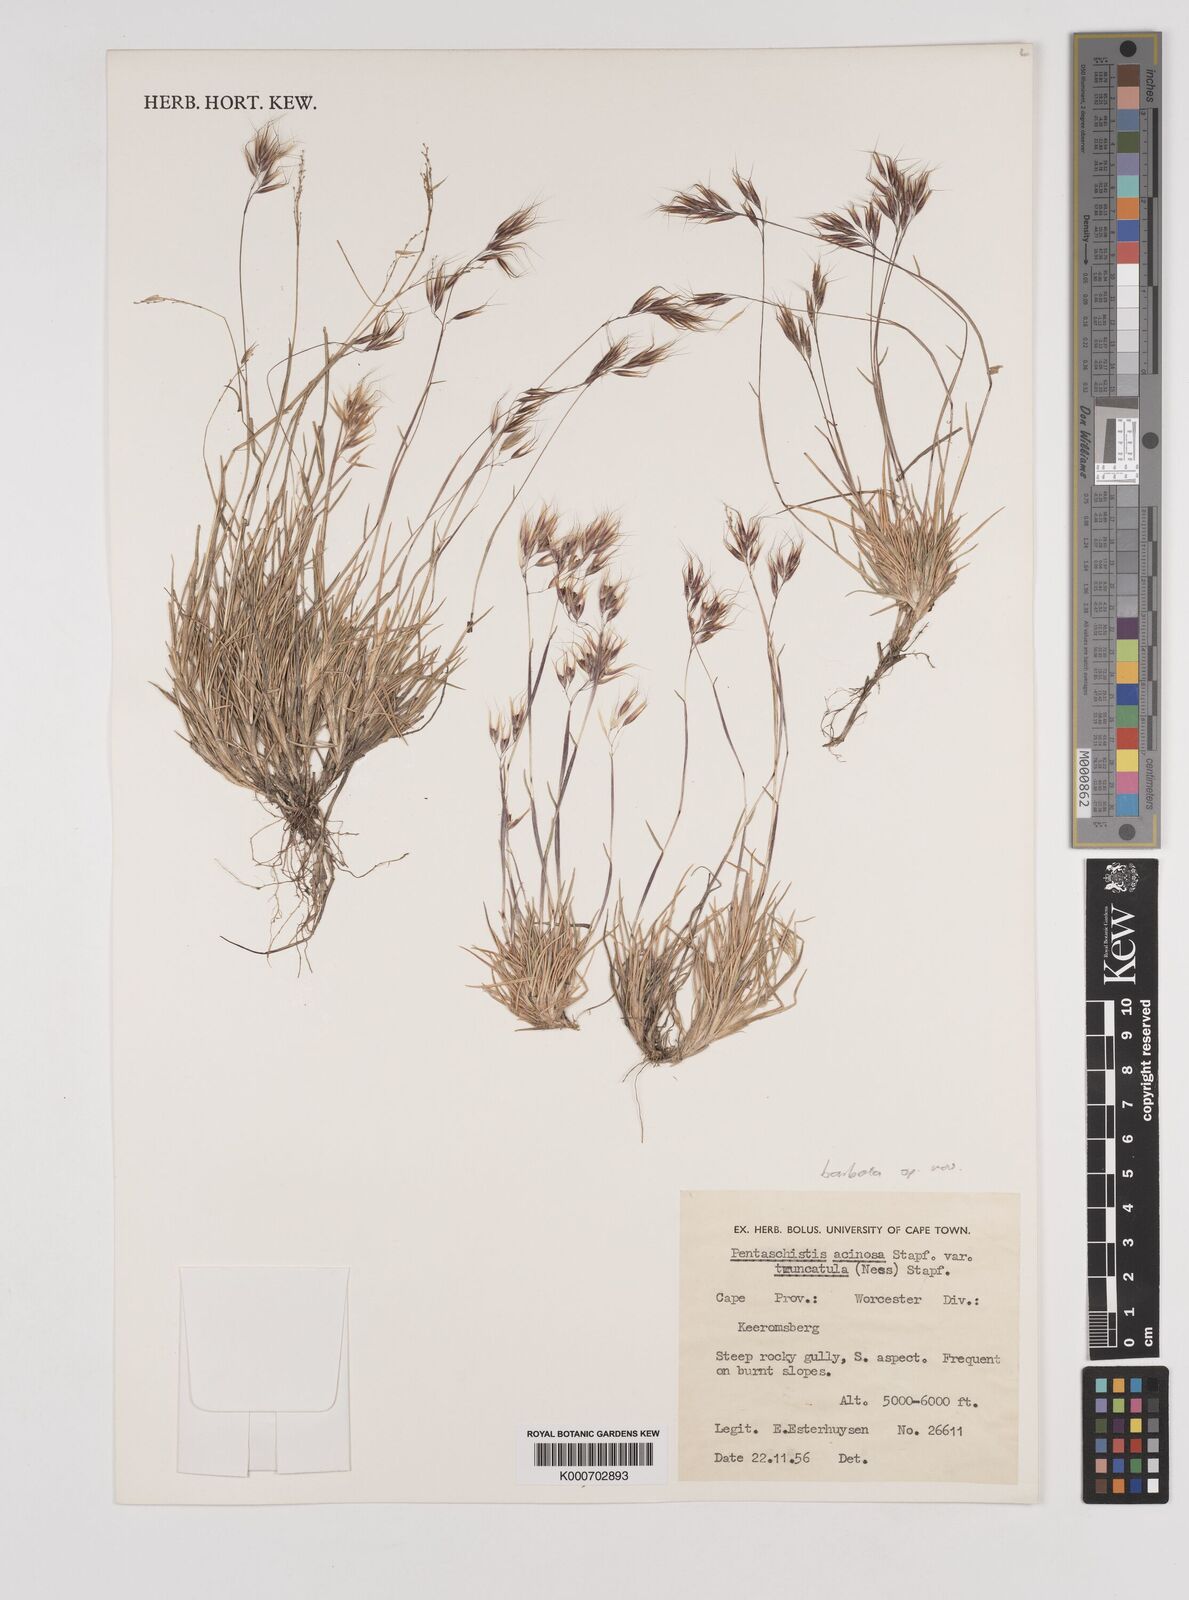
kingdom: Plantae
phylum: Tracheophyta
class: Liliopsida
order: Poales
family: Poaceae
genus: Pentameris
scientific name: Pentameris barbata
